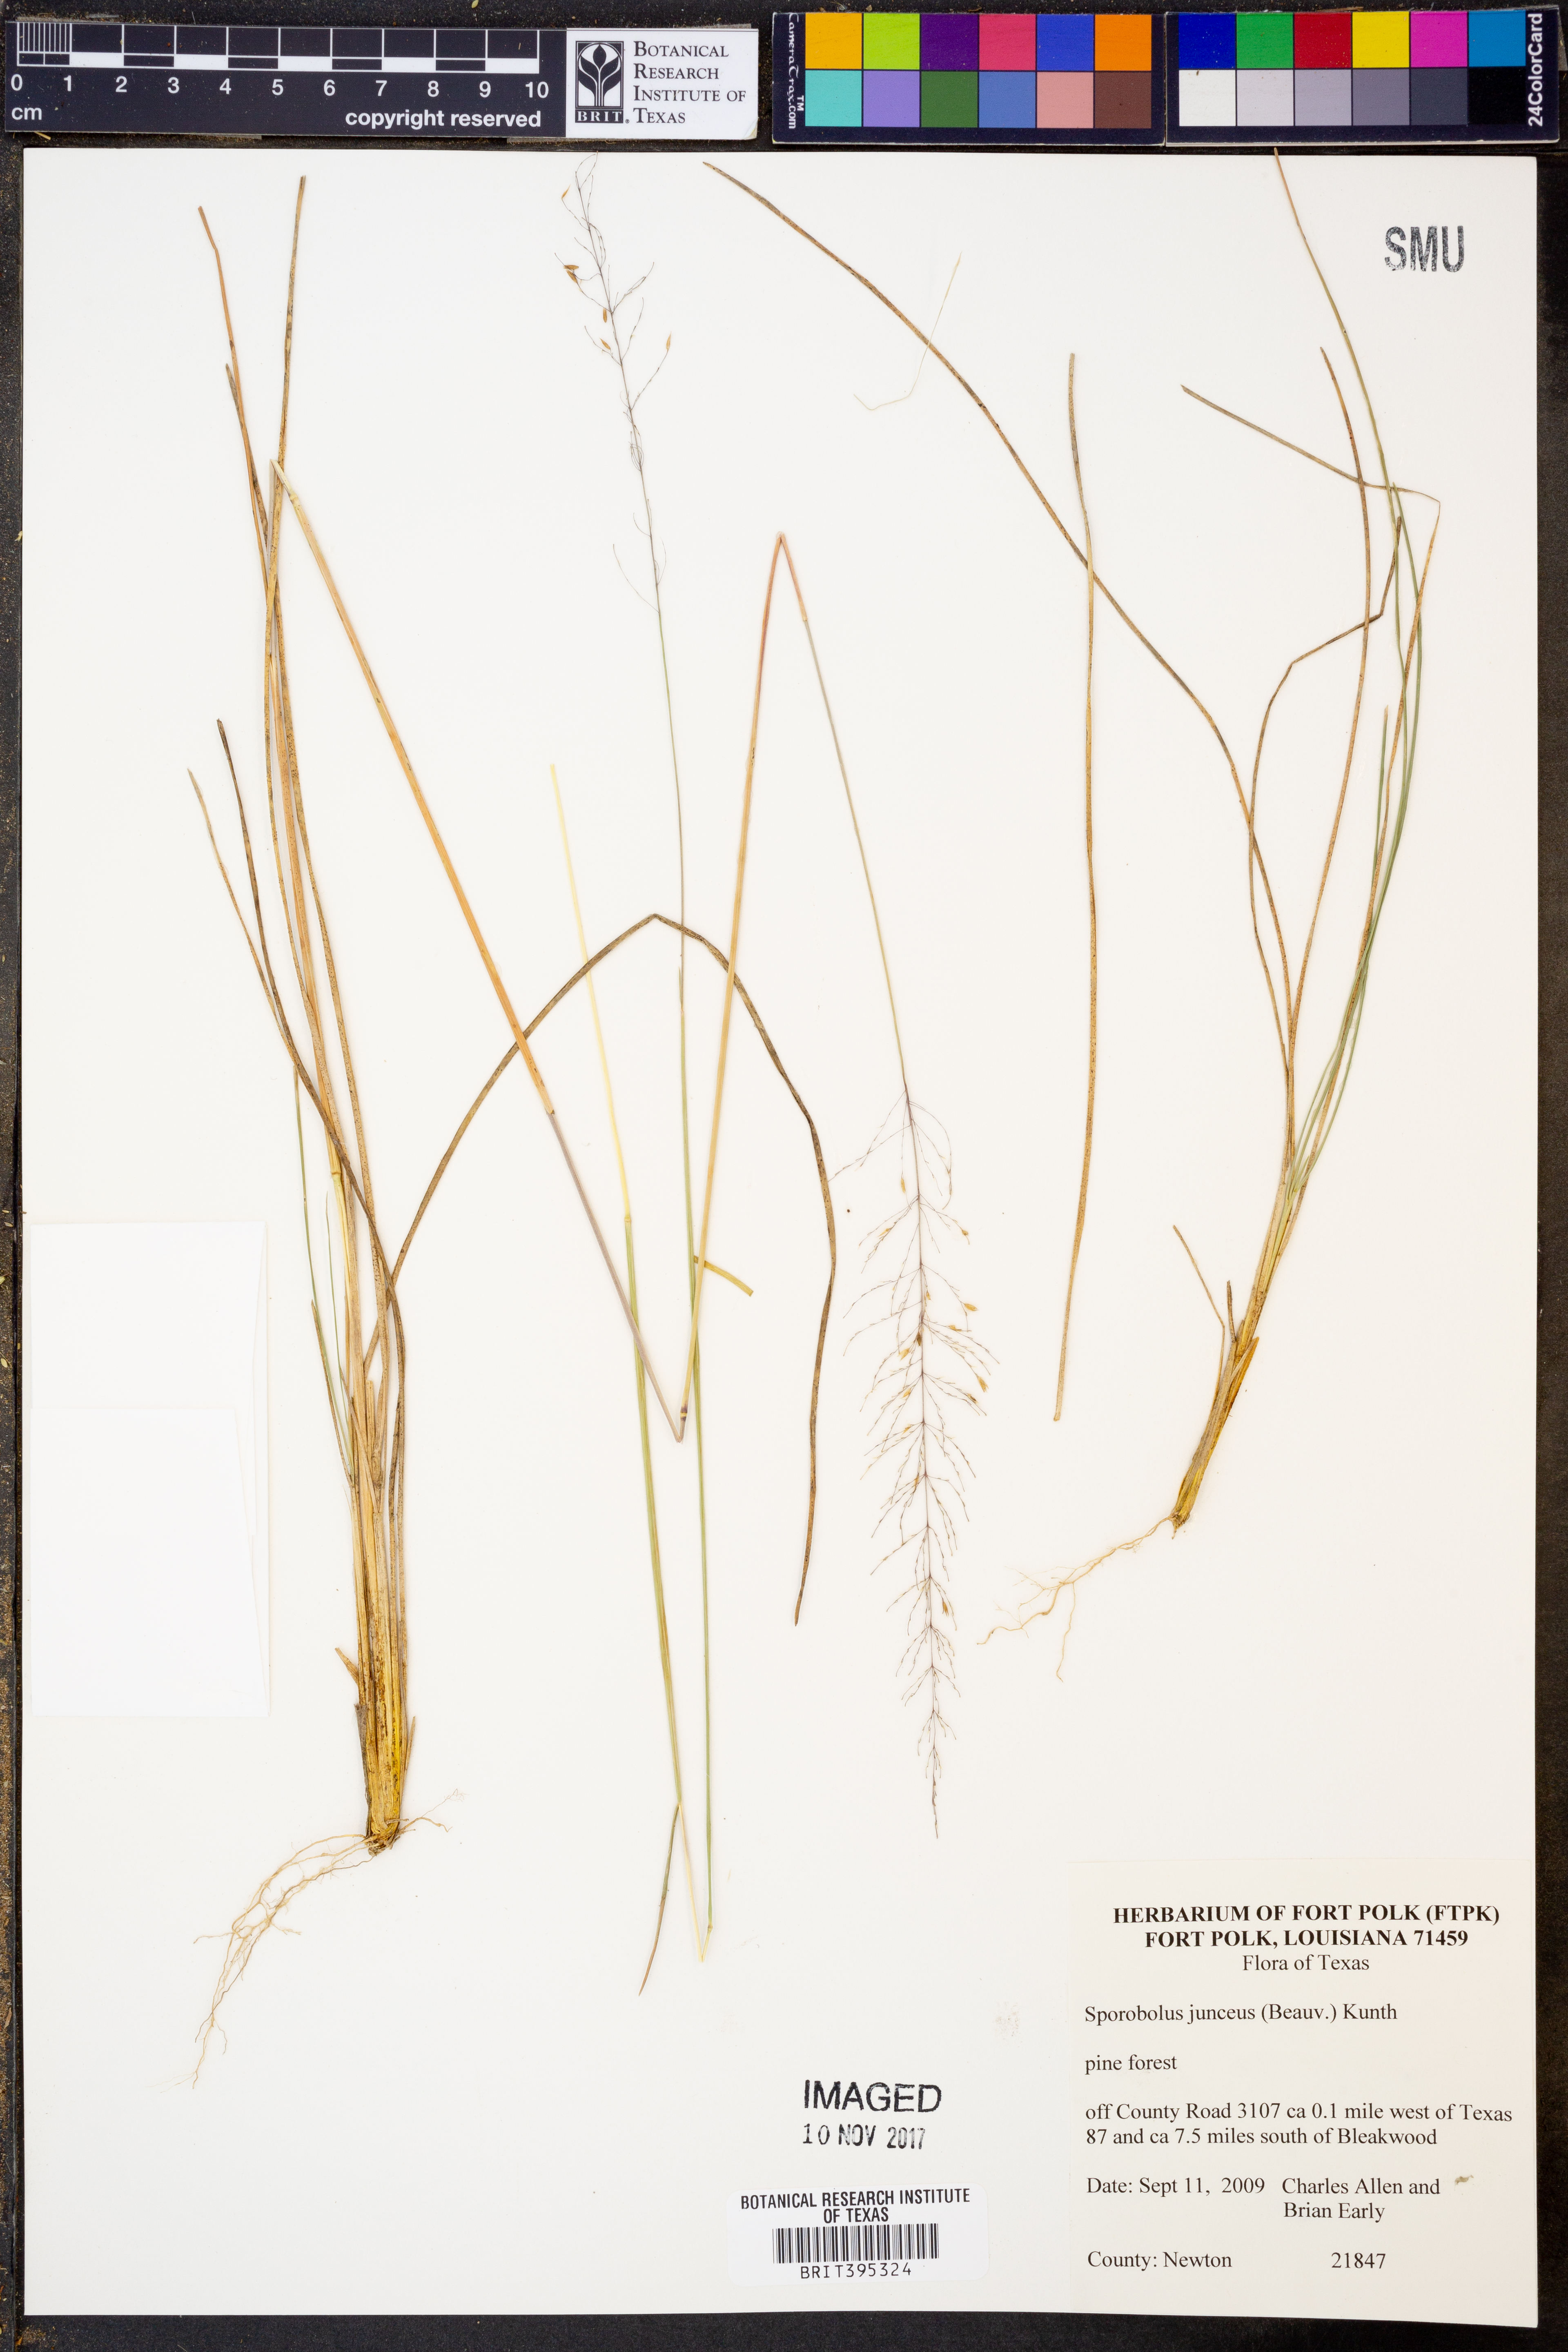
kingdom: Plantae
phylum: Tracheophyta
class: Liliopsida
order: Poales
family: Poaceae
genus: Sporobolus
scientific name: Sporobolus junceus
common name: Lizard grass
